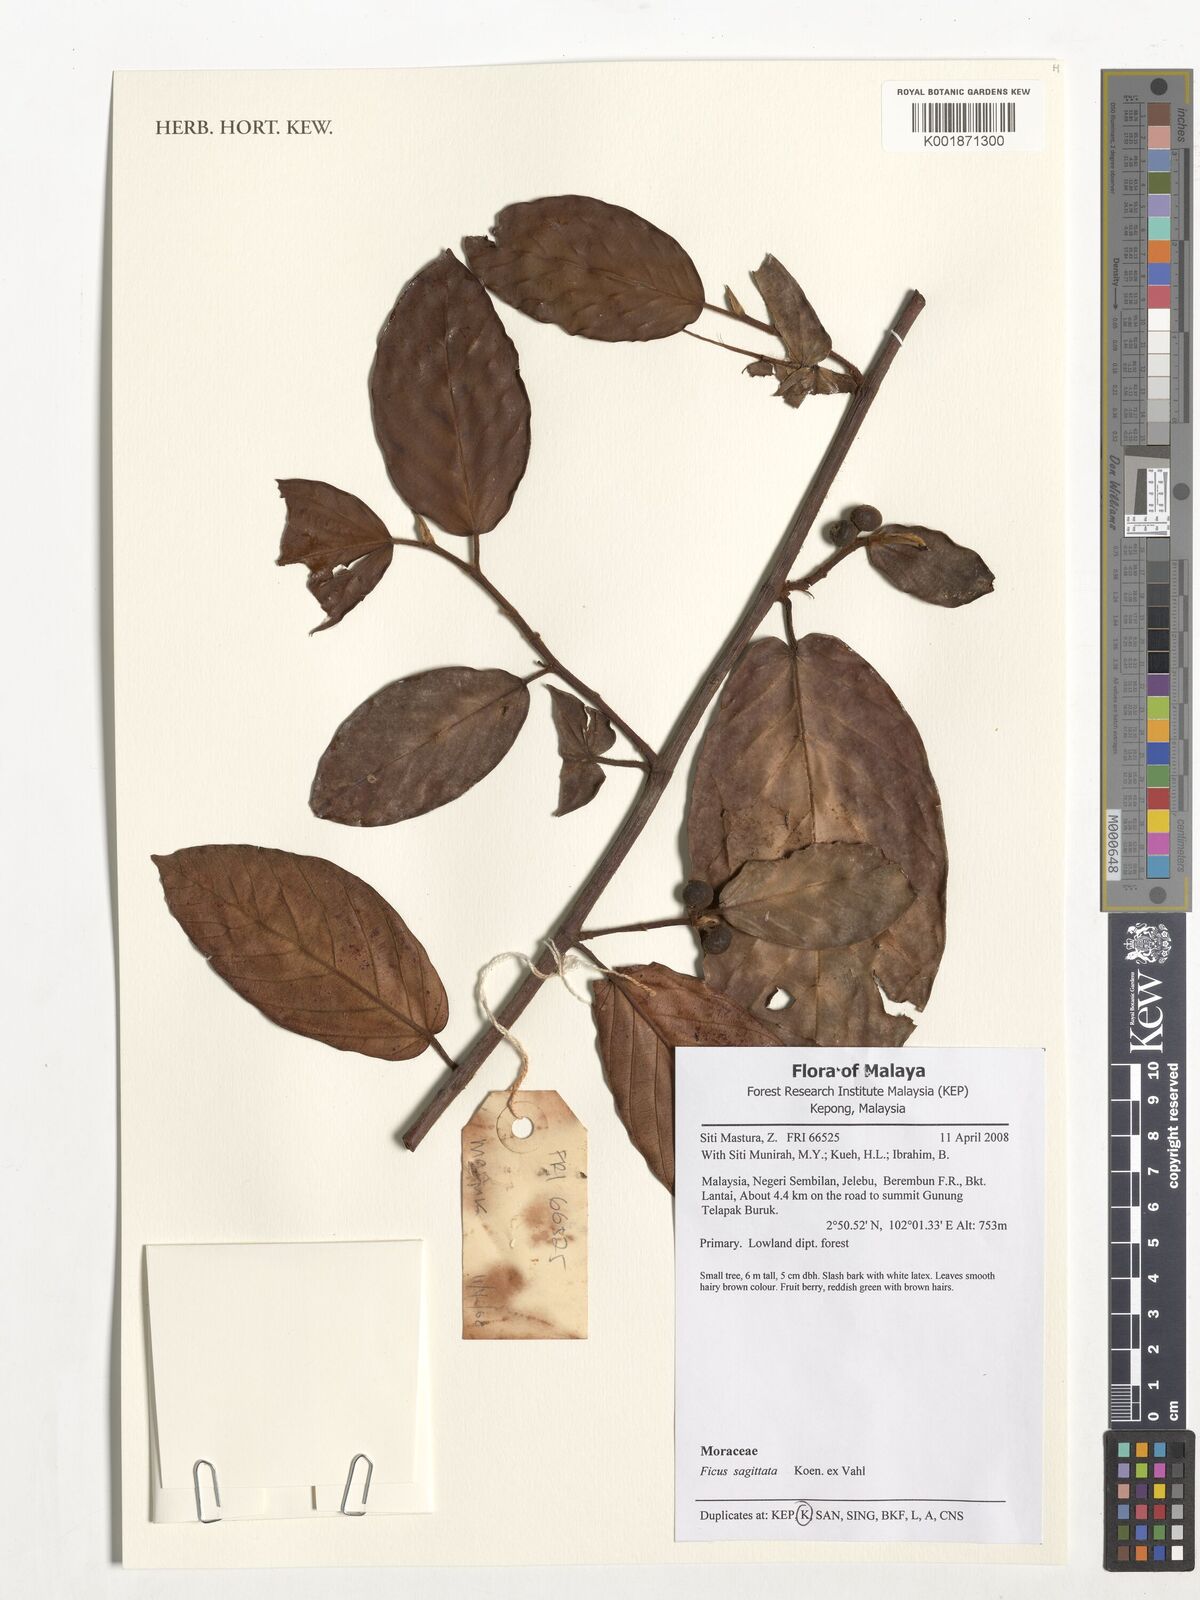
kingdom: Plantae
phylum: Tracheophyta
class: Magnoliopsida
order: Rosales
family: Moraceae
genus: Ficus
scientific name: Ficus sagittata
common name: Trailing fig
